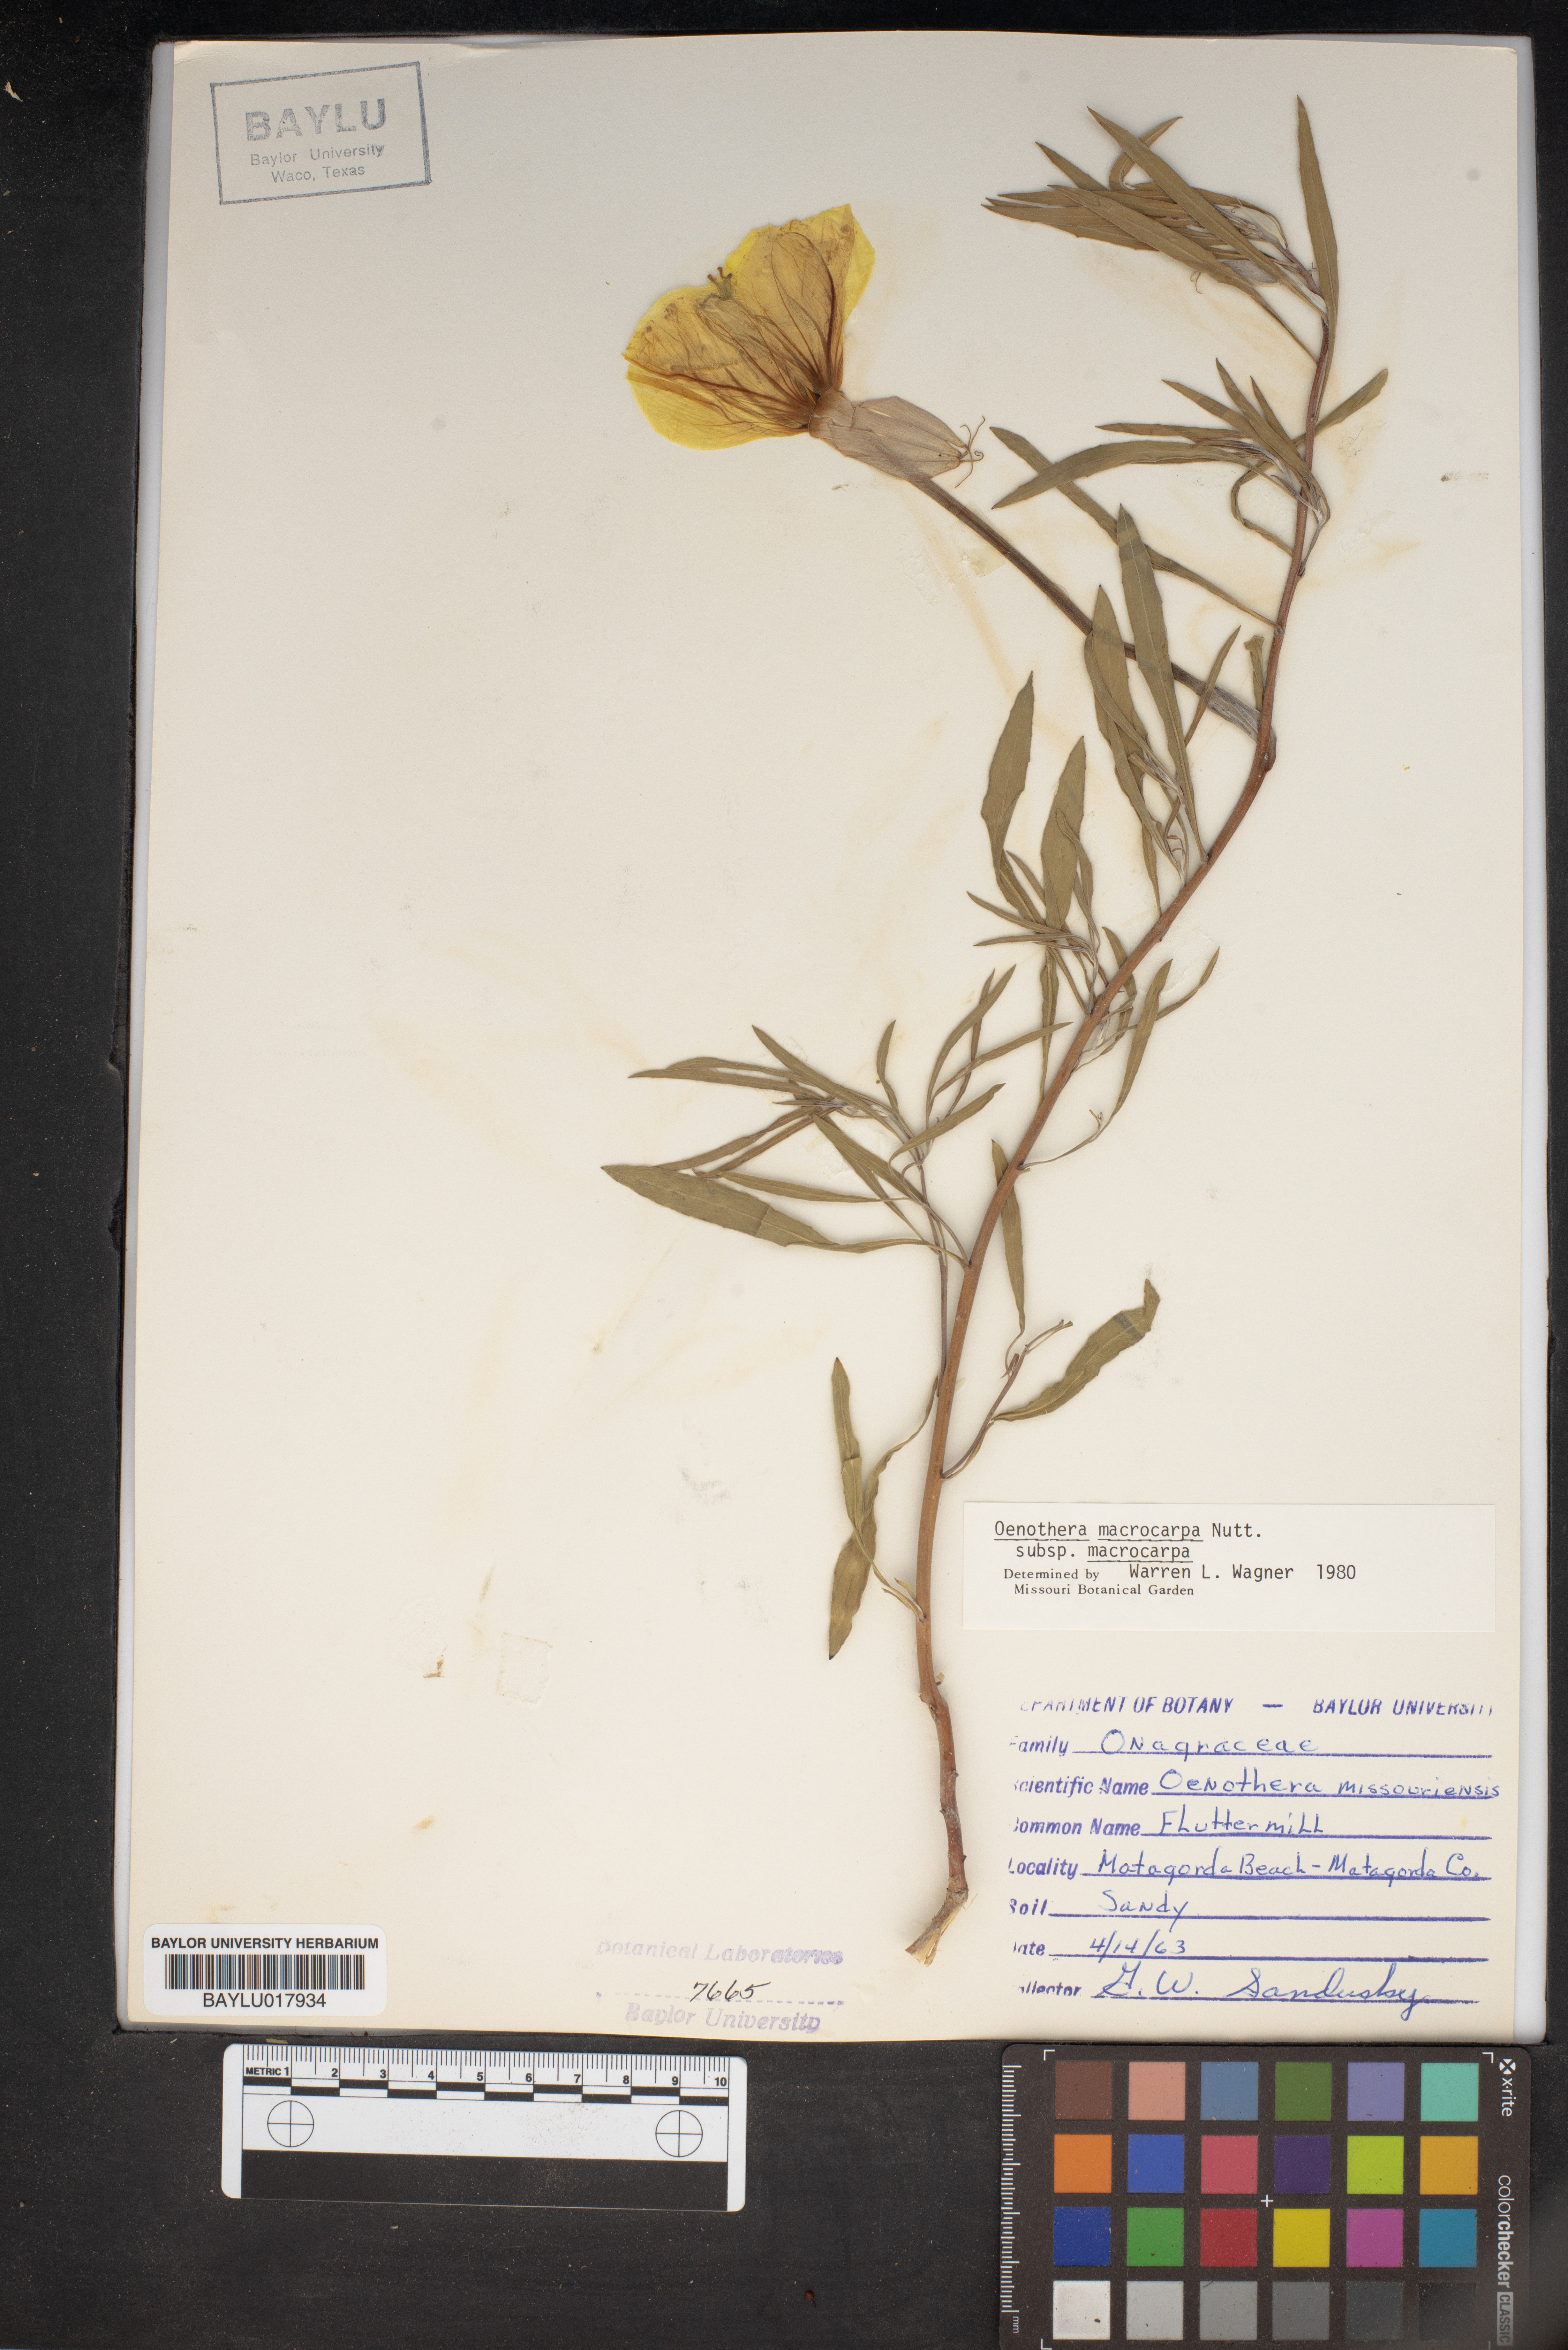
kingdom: Plantae
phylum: Tracheophyta
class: Magnoliopsida
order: Myrtales
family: Onagraceae
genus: Oenothera
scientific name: Oenothera macrocarpa
